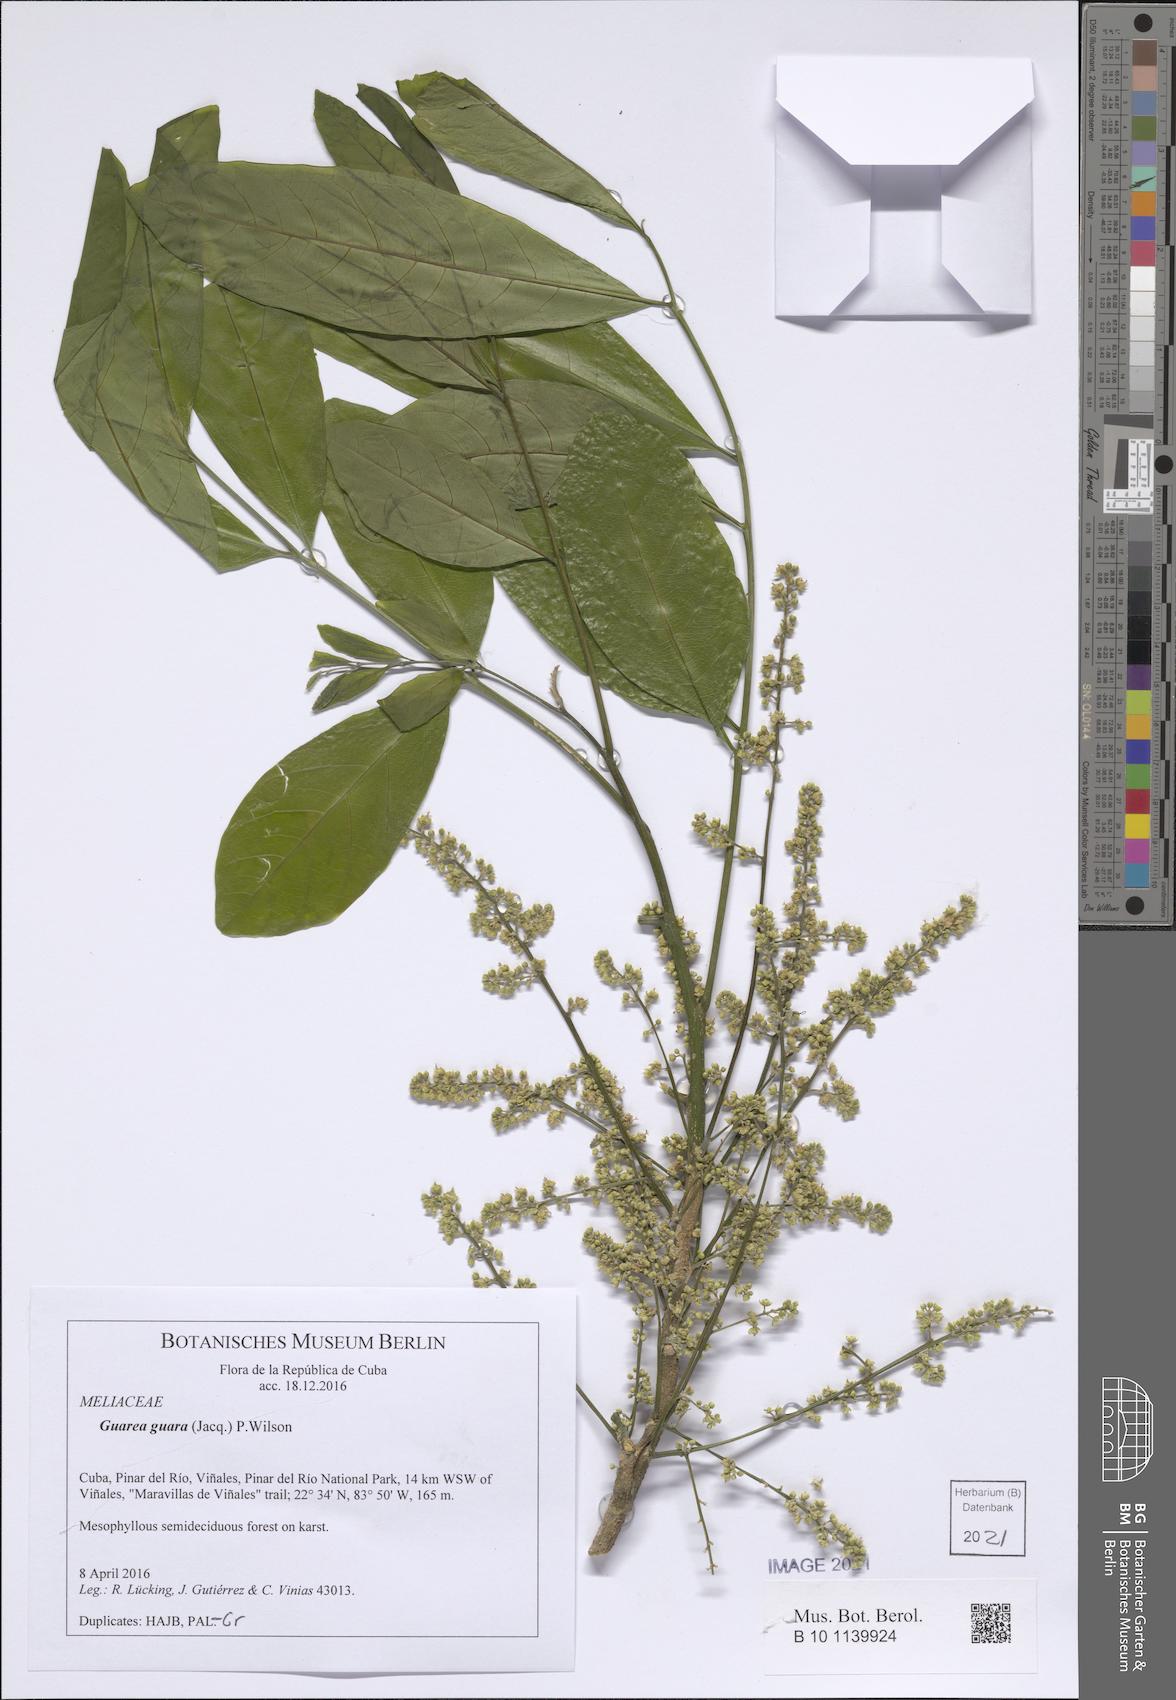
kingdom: Plantae
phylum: Tracheophyta
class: Magnoliopsida
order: Sapindales
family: Meliaceae
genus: Guarea
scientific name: Guarea guidonia
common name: American muskwood
